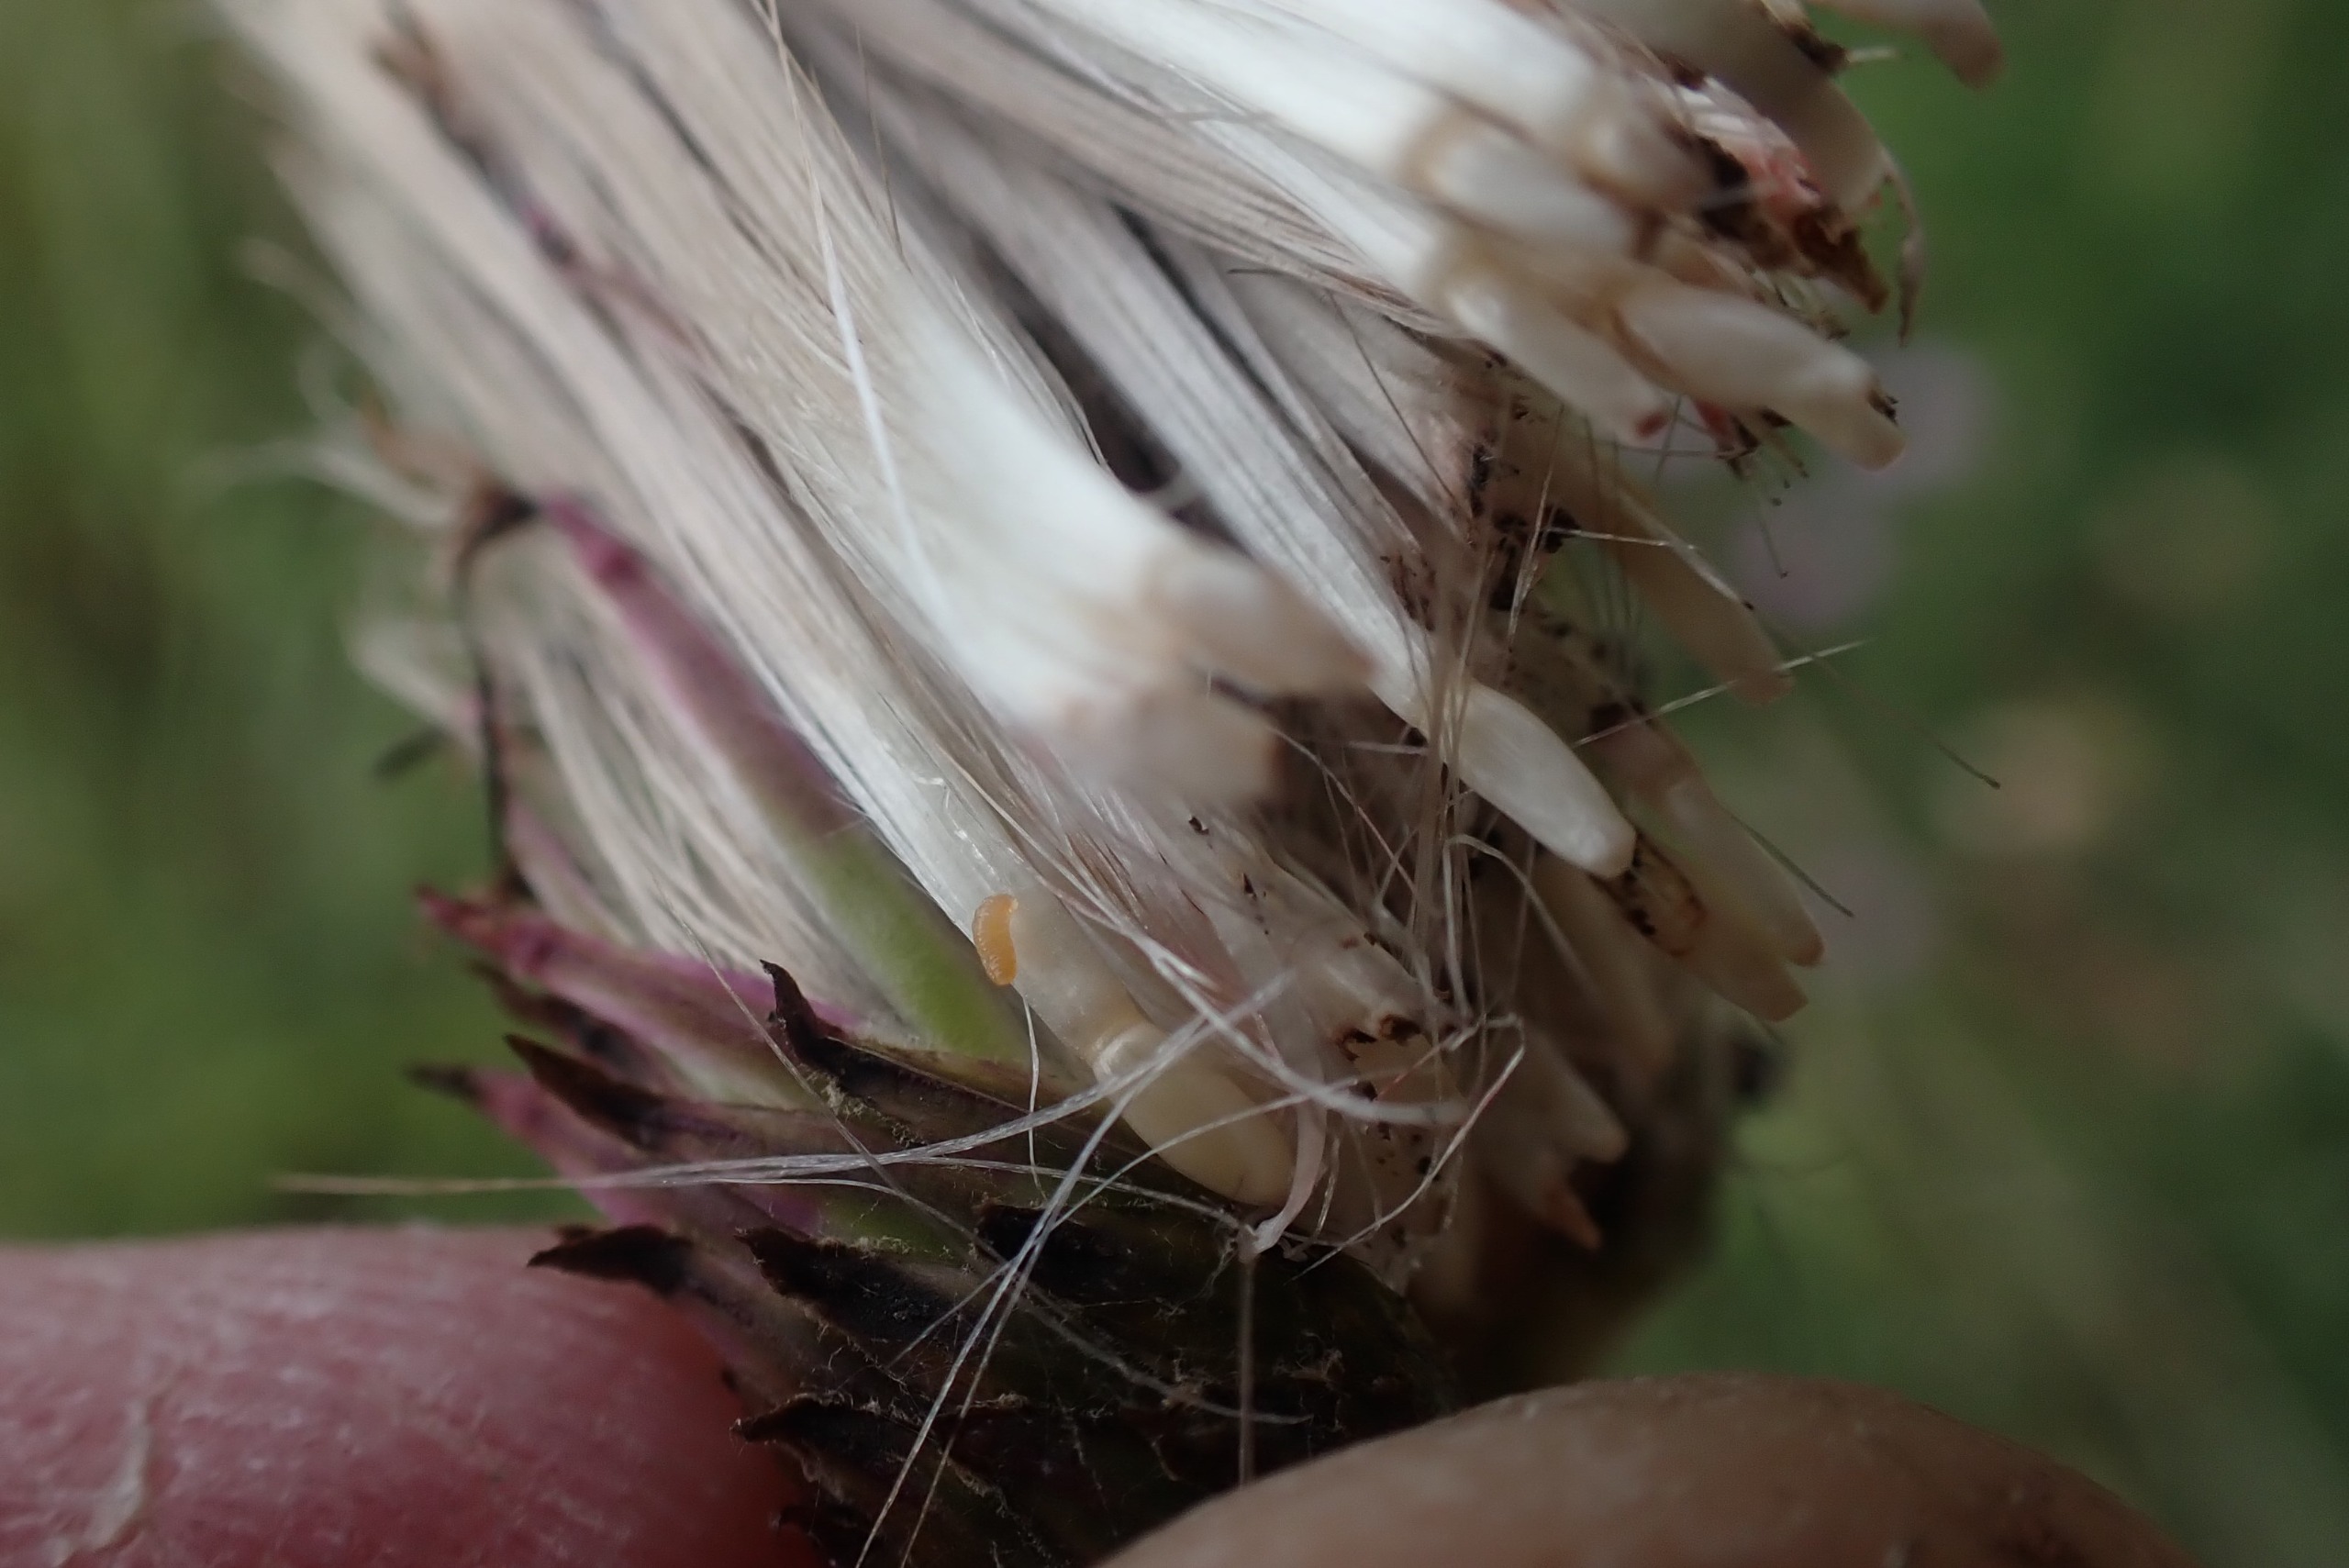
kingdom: Animalia
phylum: Arthropoda
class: Insecta
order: Diptera
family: Cecidomyiidae
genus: Jaapiella
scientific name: Jaapiella cirsiicola
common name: Tidselgalmyg
